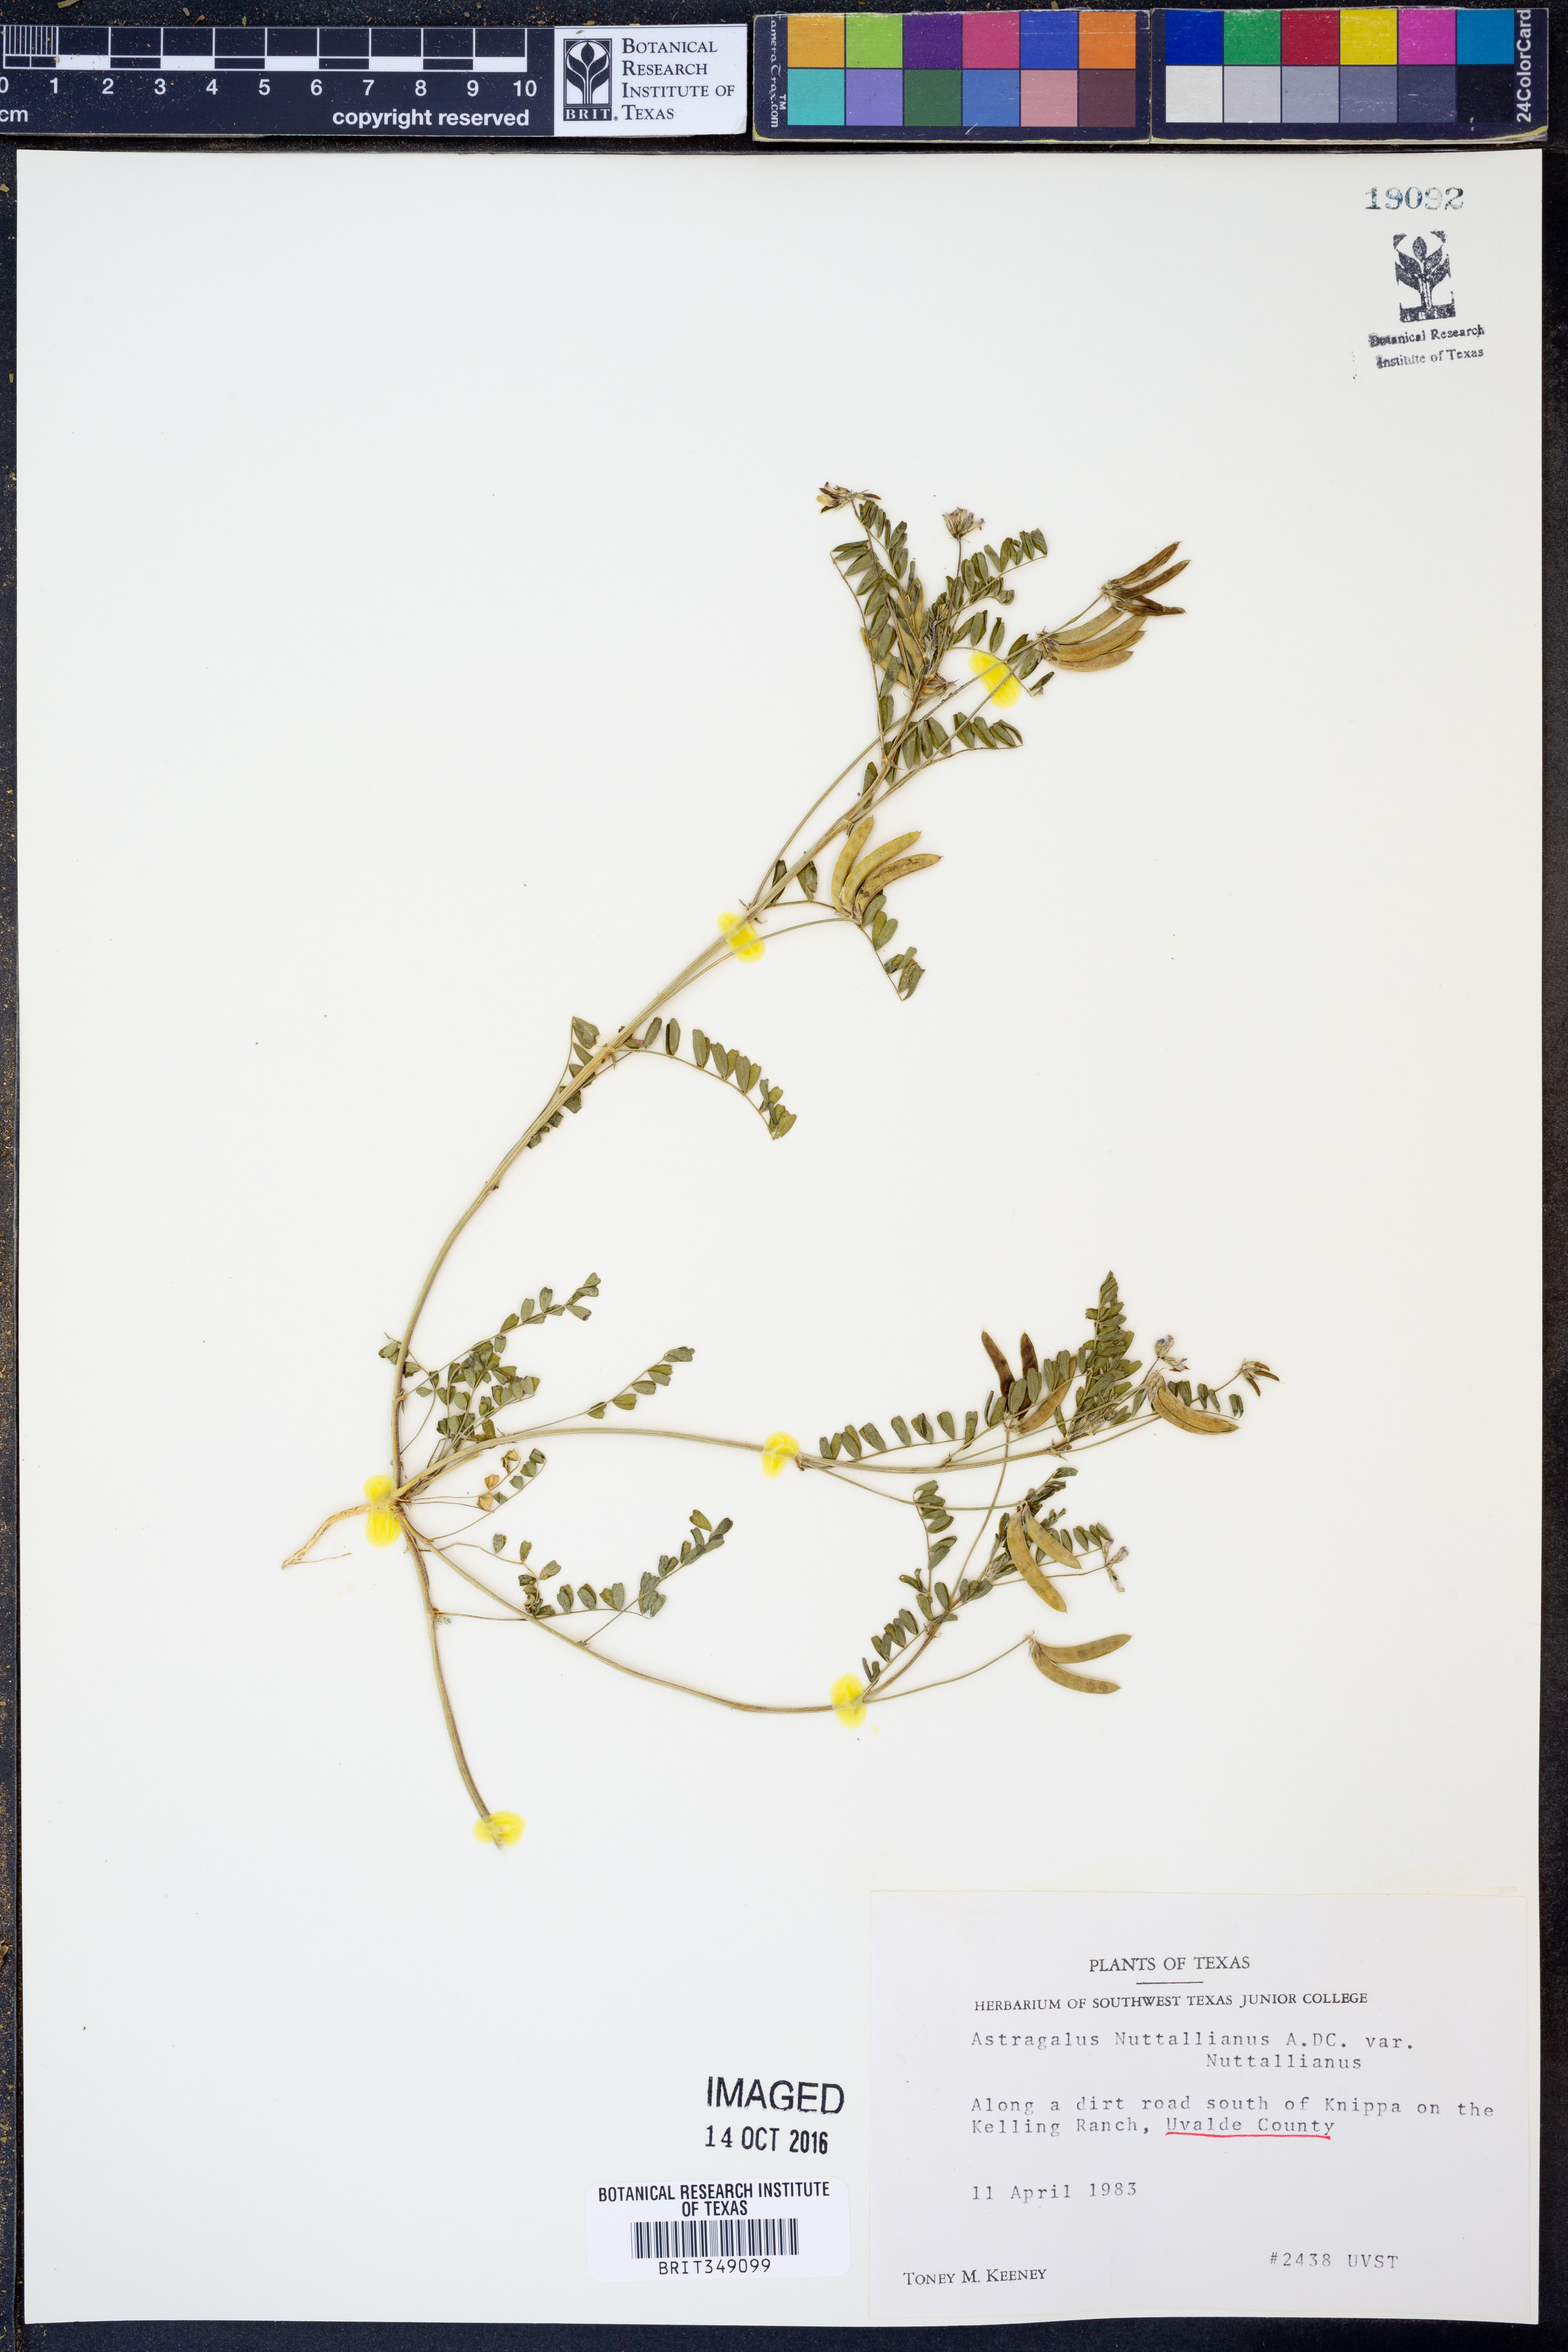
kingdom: Plantae
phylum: Tracheophyta
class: Magnoliopsida
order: Fabales
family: Fabaceae
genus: Astragalus
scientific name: Astragalus nuttallianus
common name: Smallflowered milkvetch
